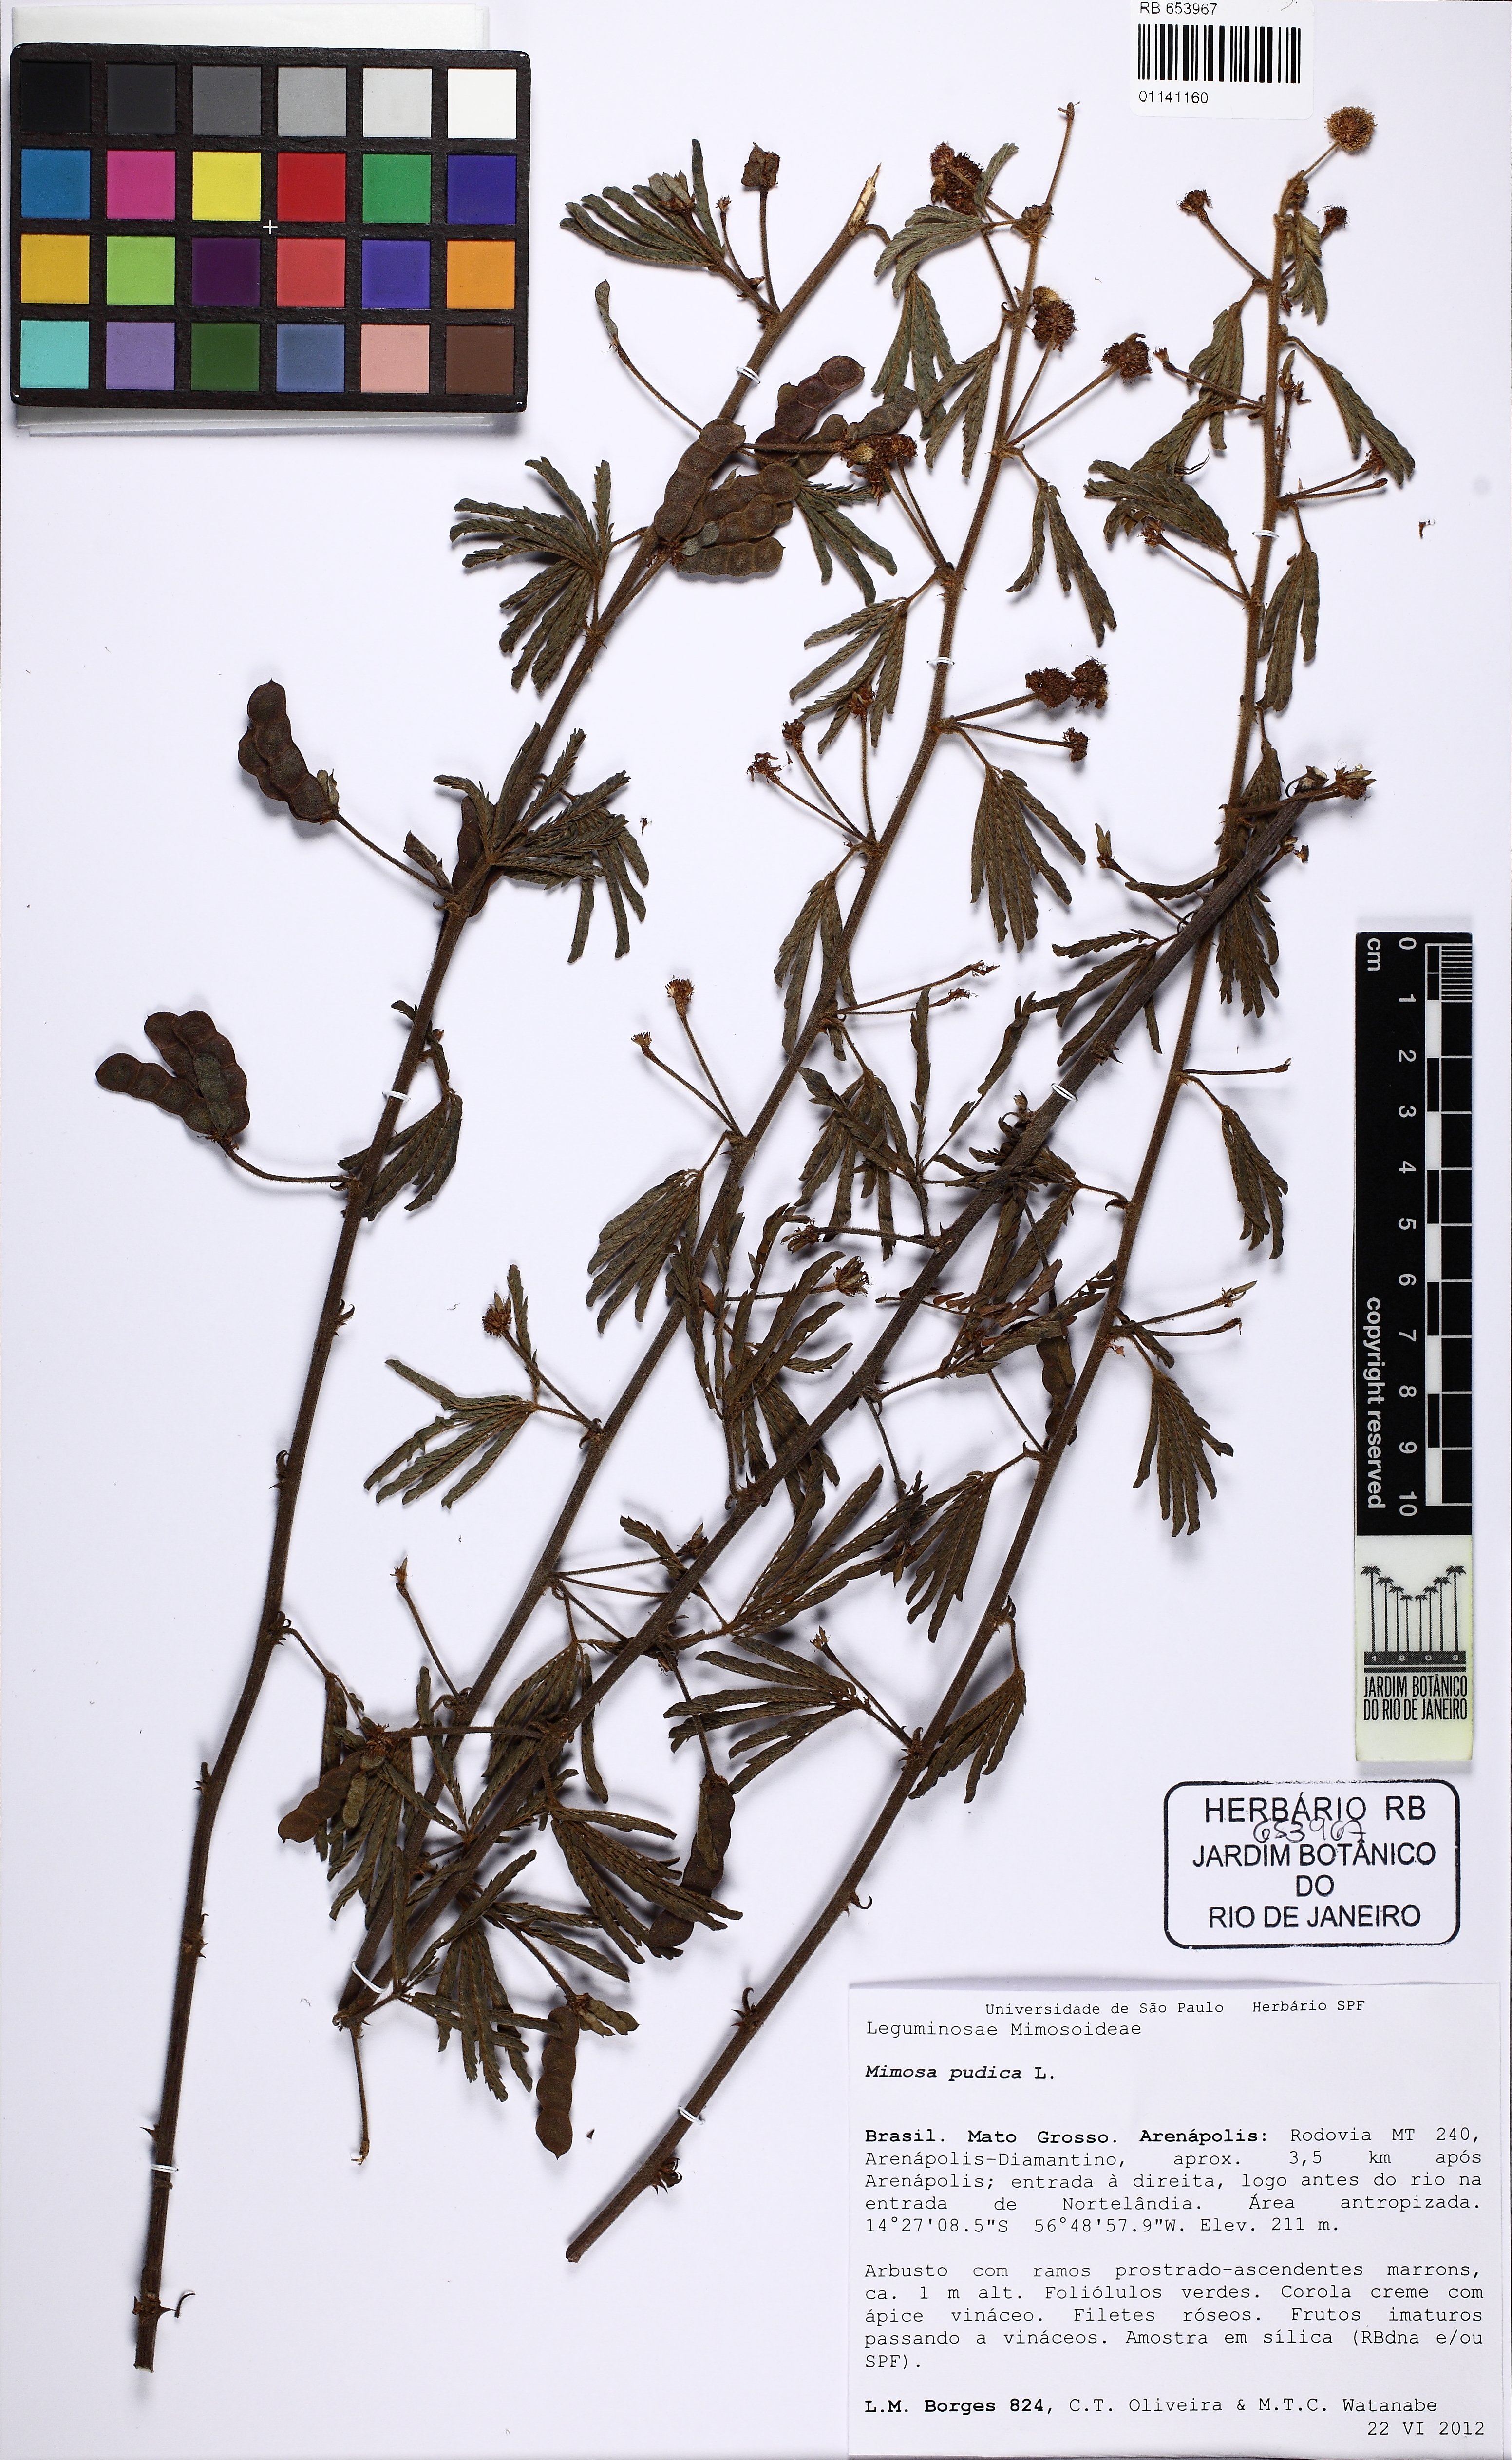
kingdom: Plantae
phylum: Tracheophyta
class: Magnoliopsida
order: Fabales
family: Fabaceae
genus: Mimosa
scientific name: Mimosa pudica
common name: Sensitive plant
